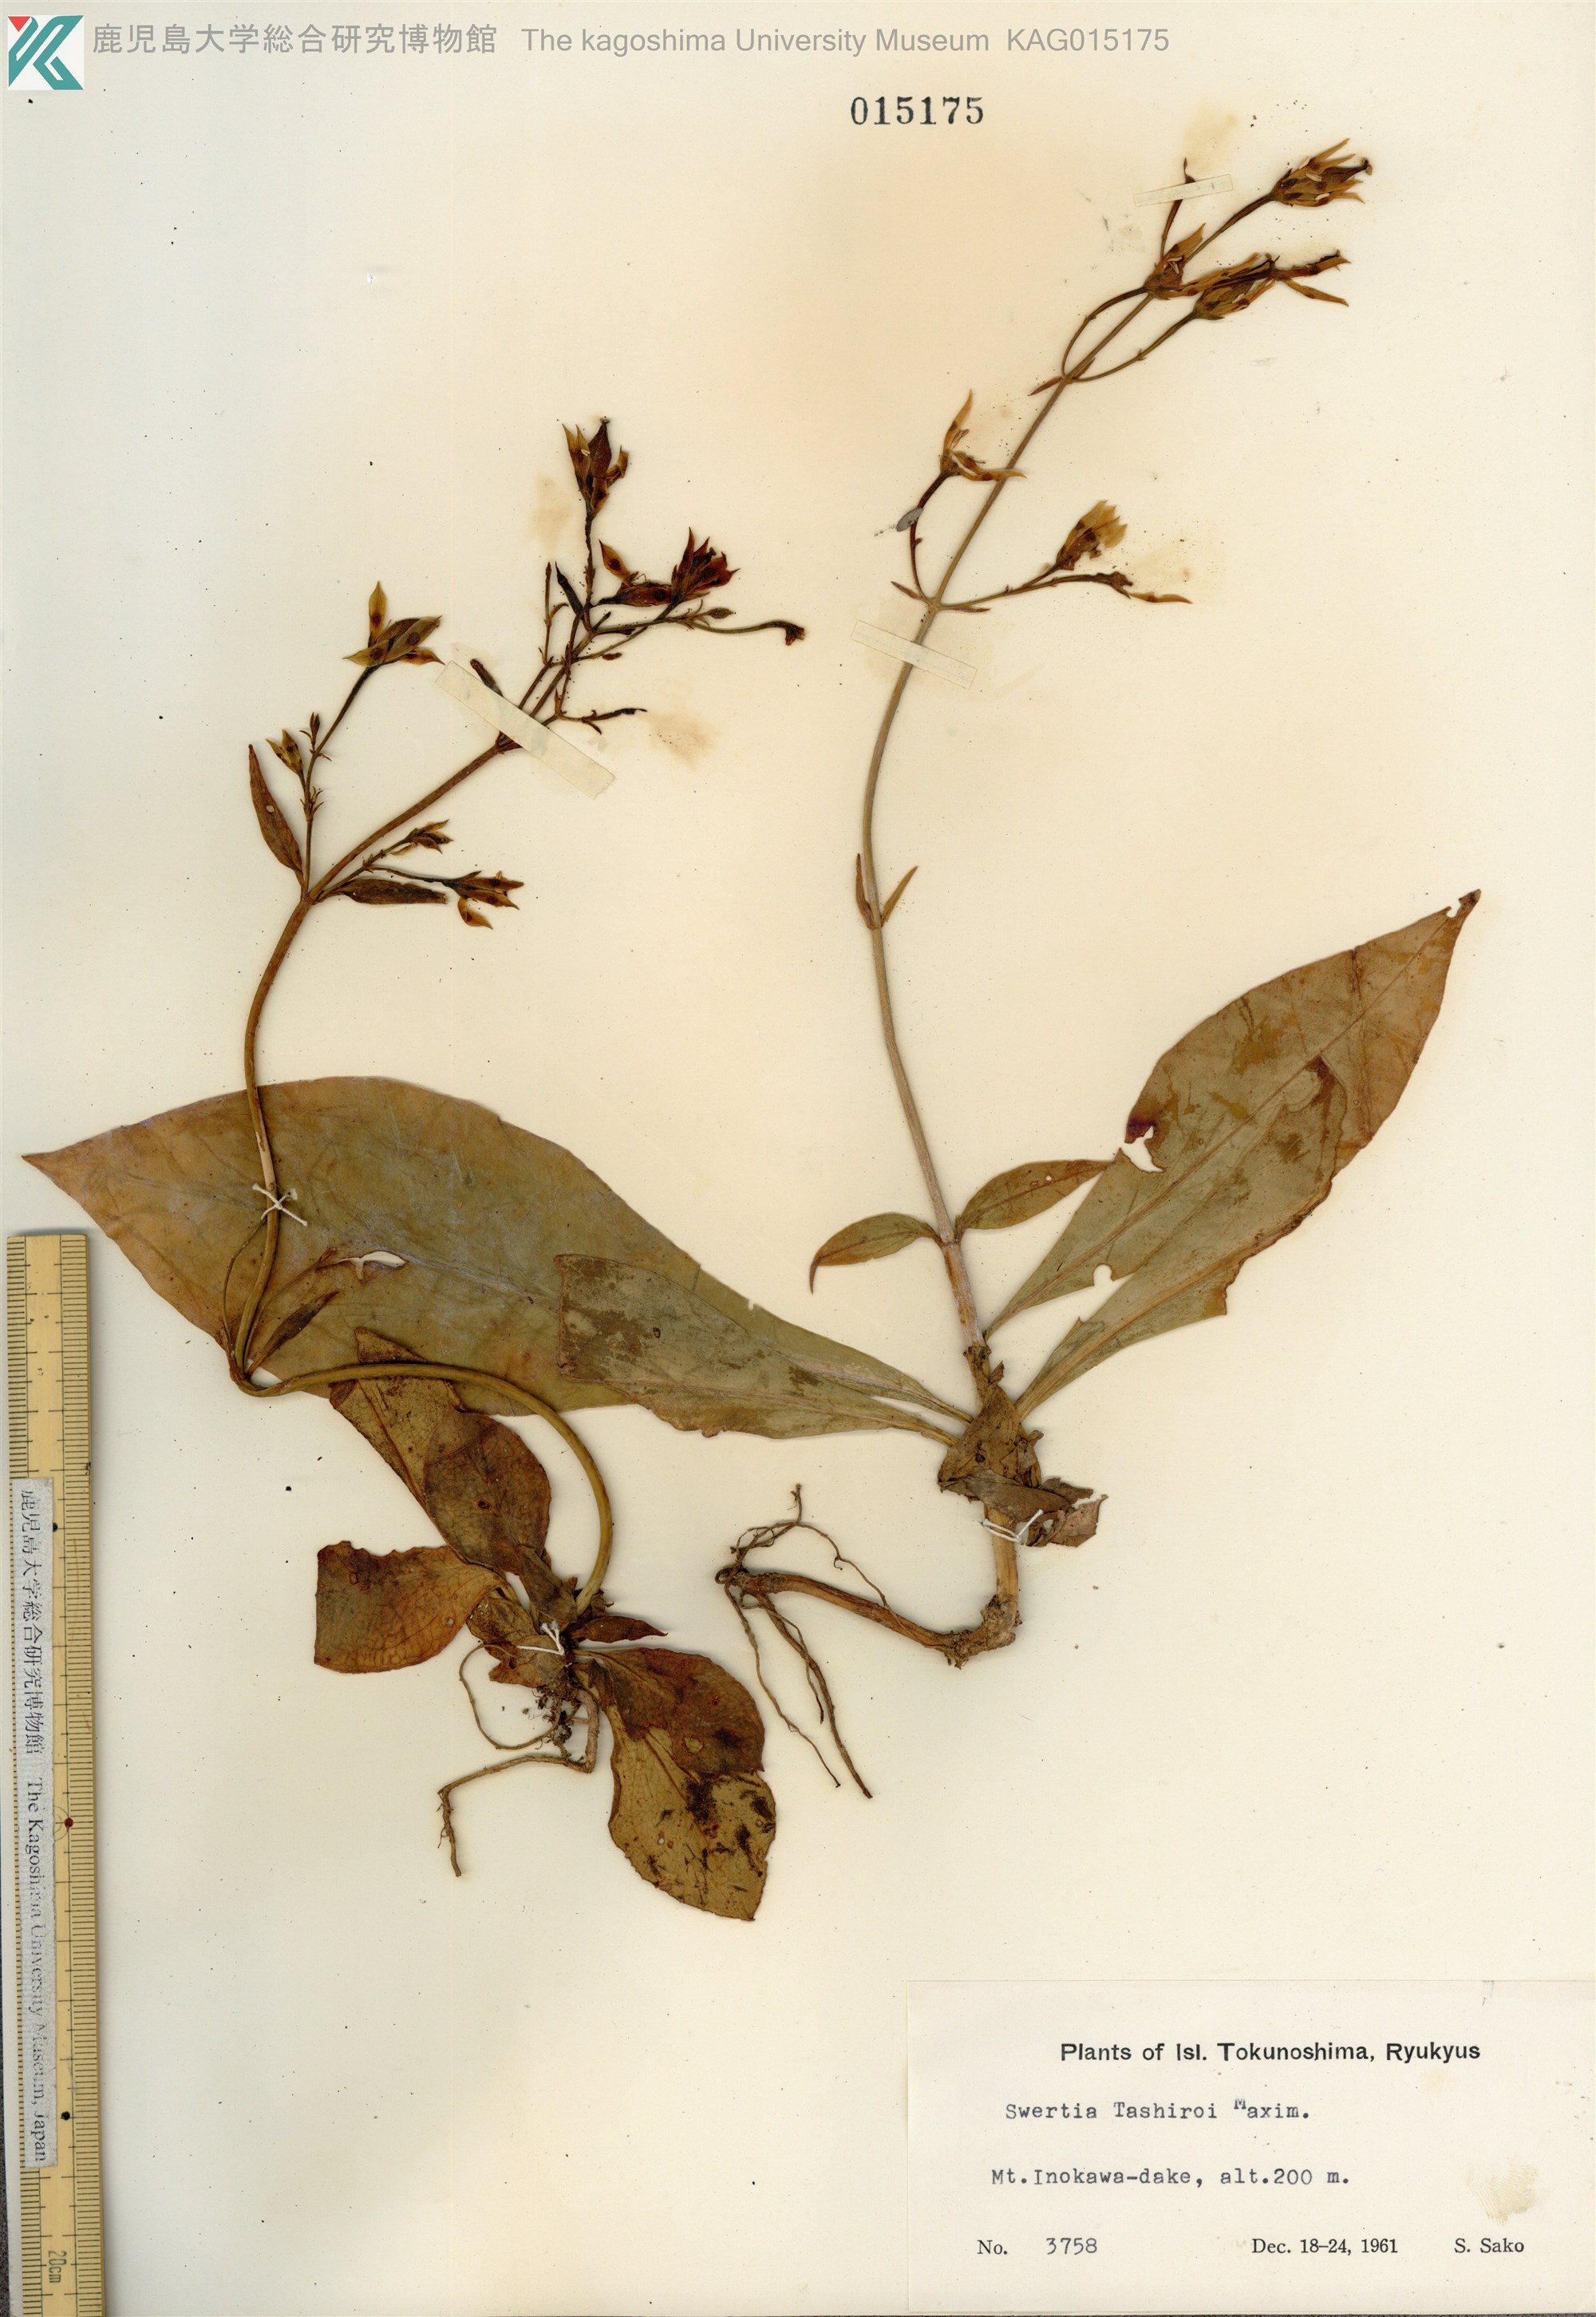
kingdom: Plantae
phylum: Tracheophyta
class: Magnoliopsida
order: Gentianales
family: Gentianaceae
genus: Swertia
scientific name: Swertia tashiroi
